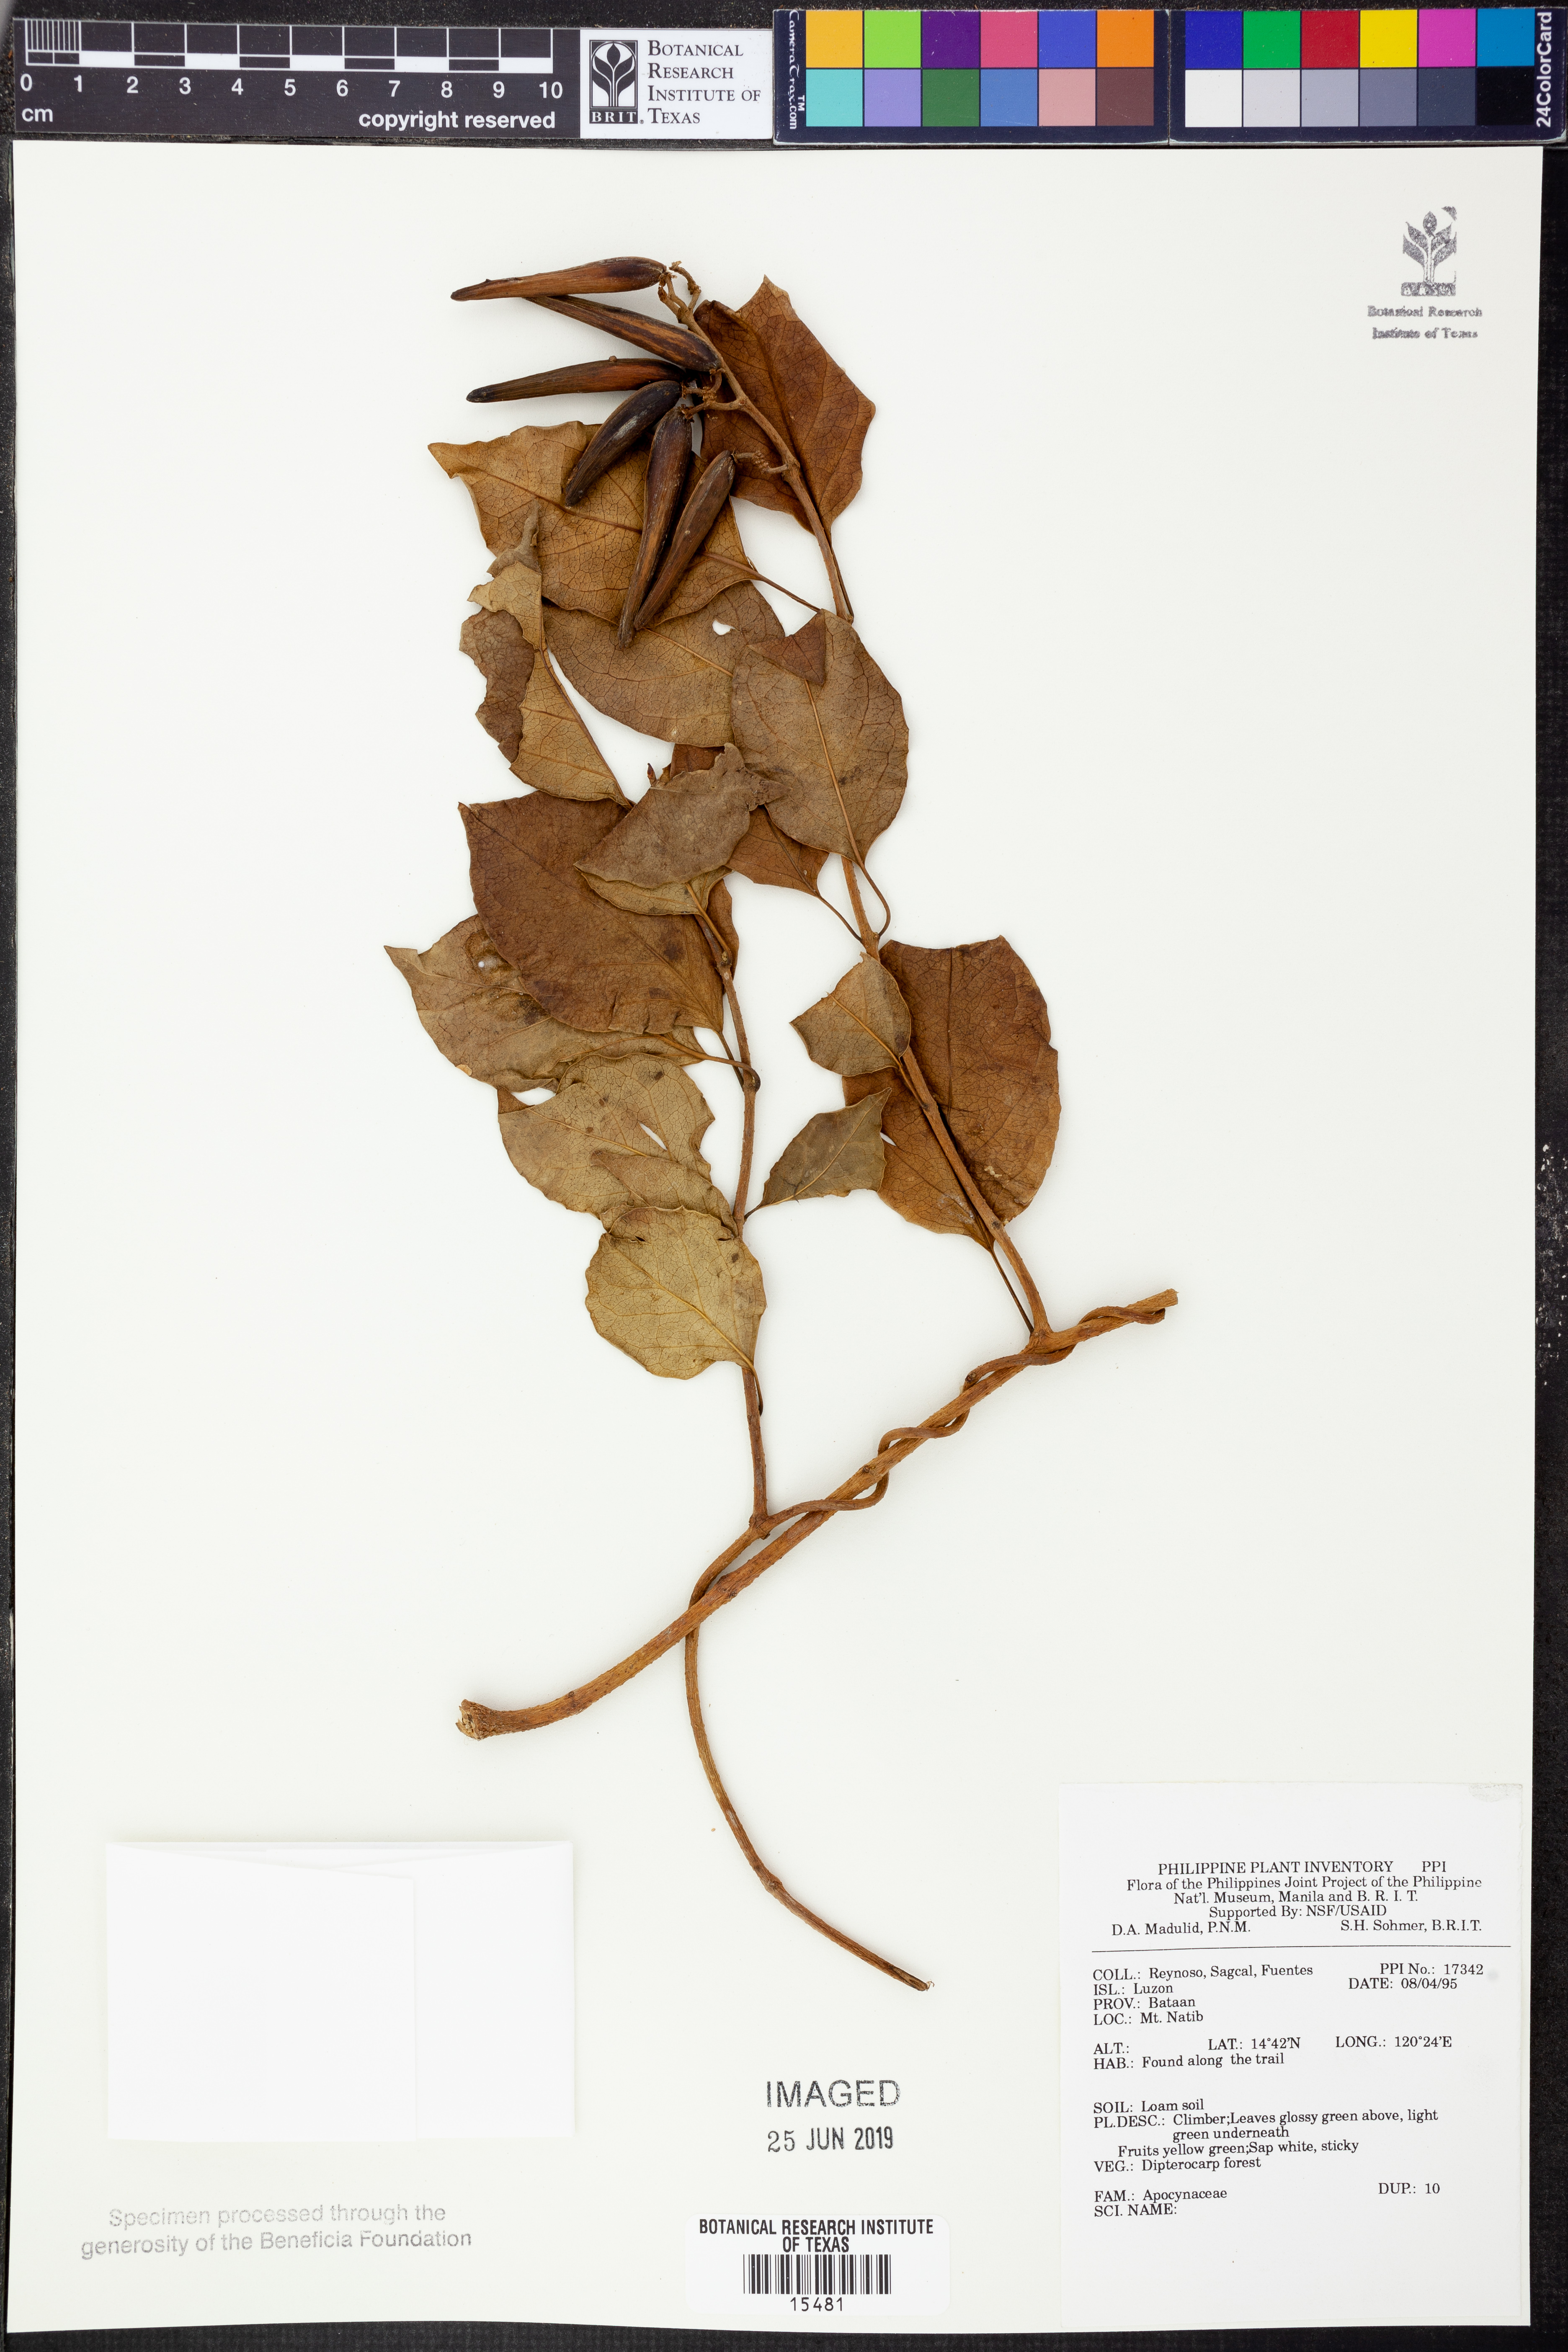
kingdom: Plantae
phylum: Tracheophyta
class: Magnoliopsida
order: Gentianales
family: Apocynaceae
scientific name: Apocynaceae
